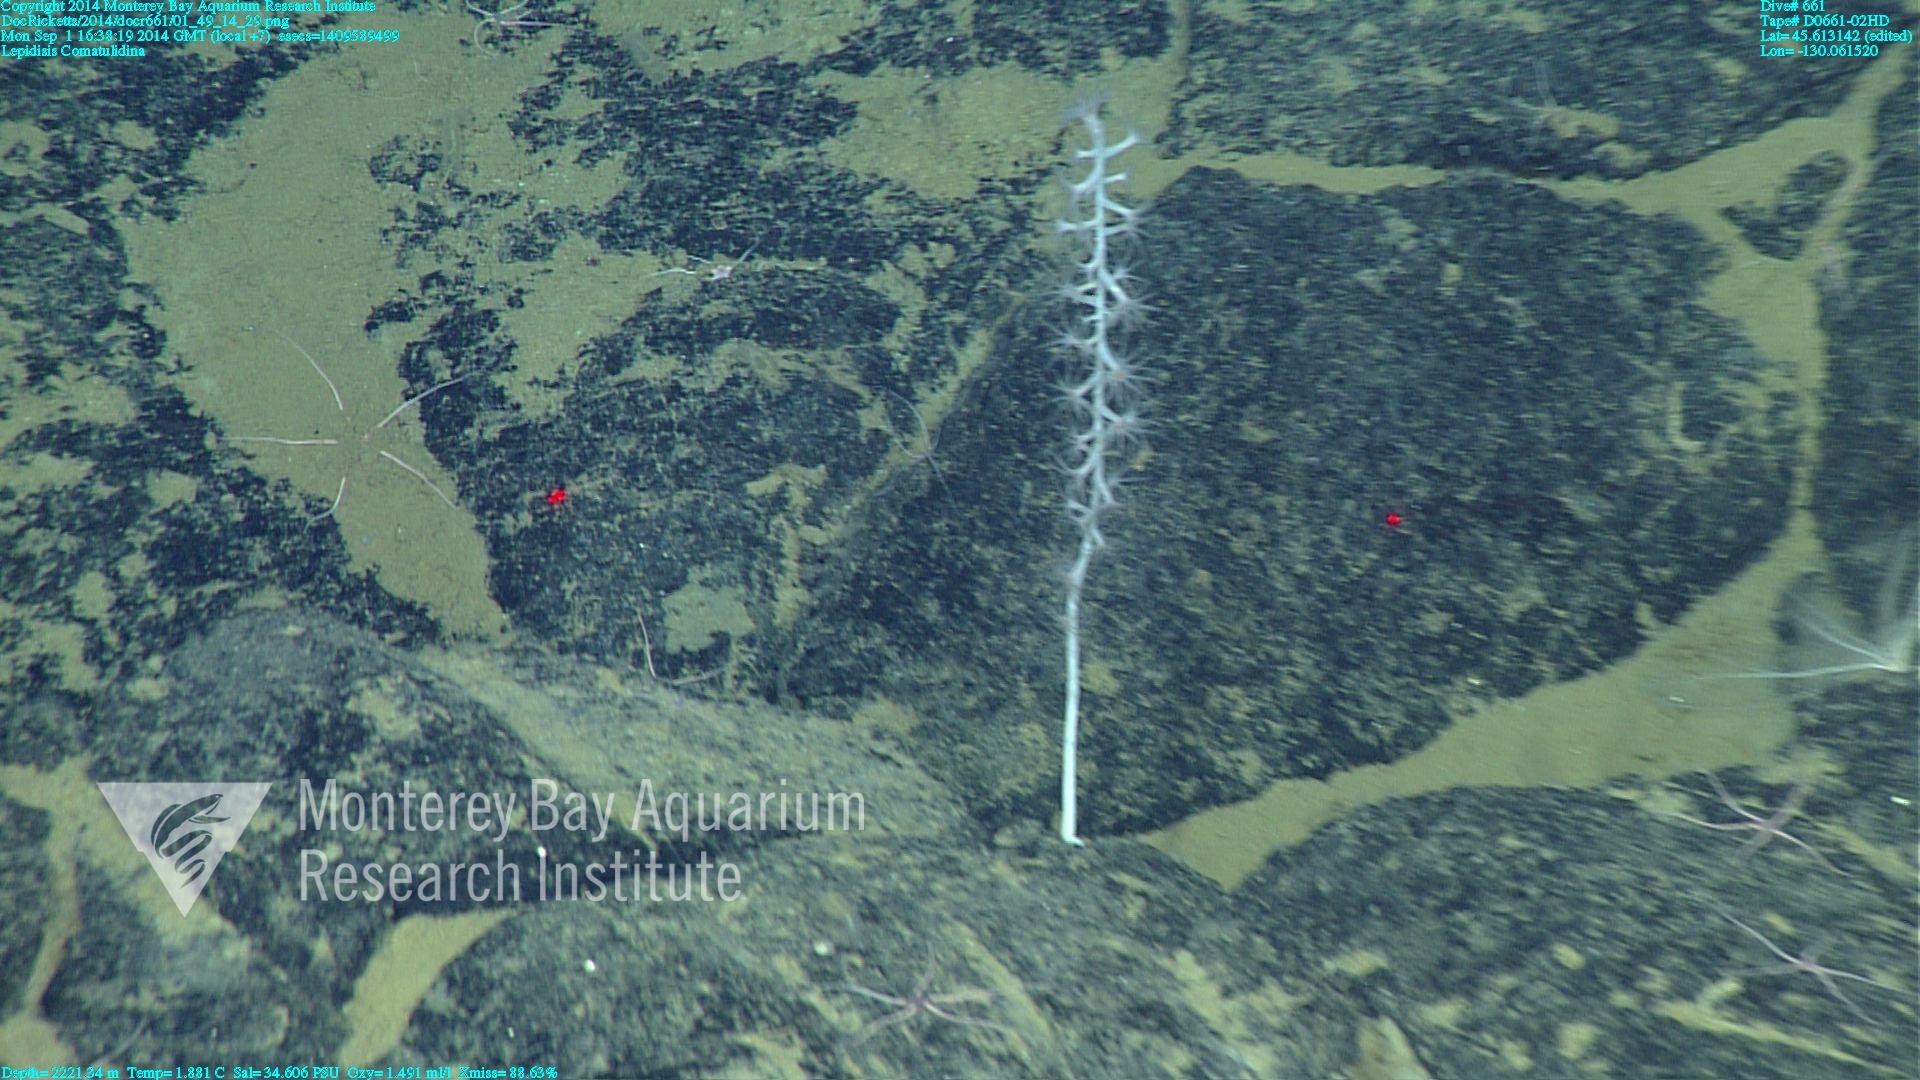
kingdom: Animalia
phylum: Cnidaria
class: Anthozoa
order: Scleralcyonacea
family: Keratoisididae
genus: Lepidisis
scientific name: Lepidisis
